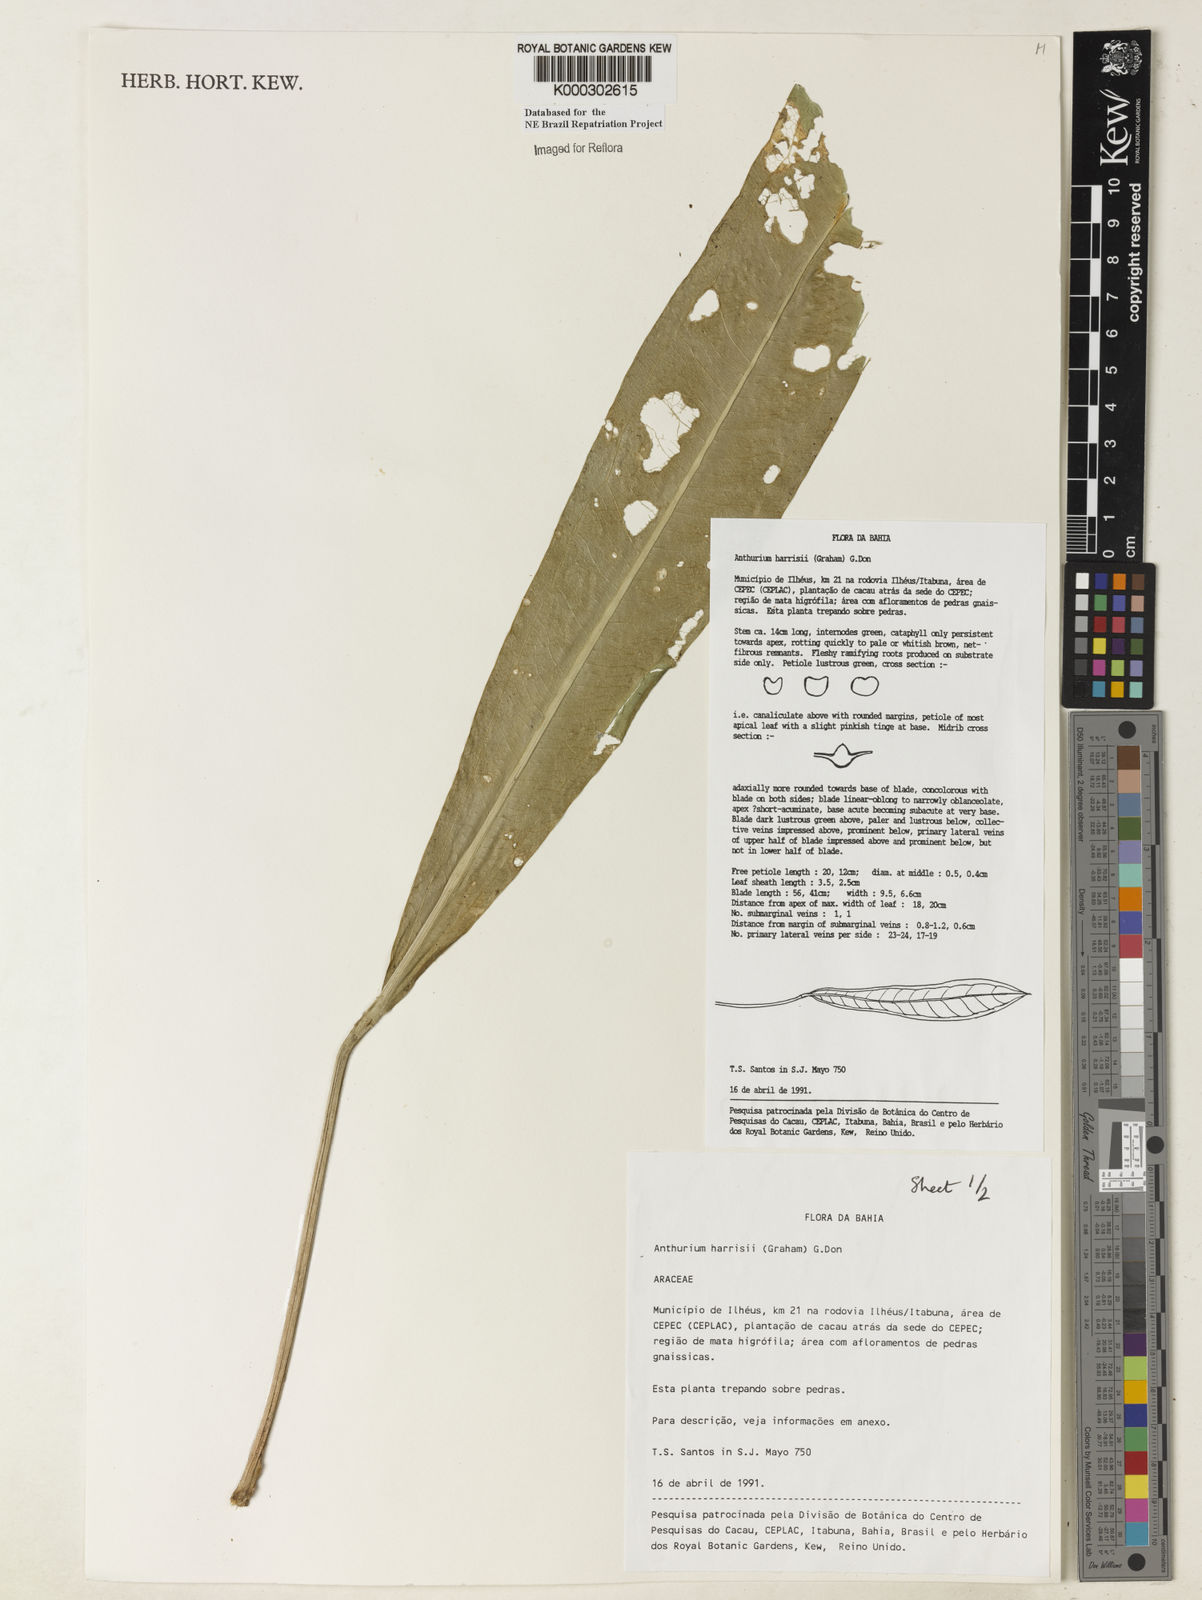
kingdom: Plantae
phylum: Tracheophyta
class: Liliopsida
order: Alismatales
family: Araceae
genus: Anthurium
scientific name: Anthurium harrisii
